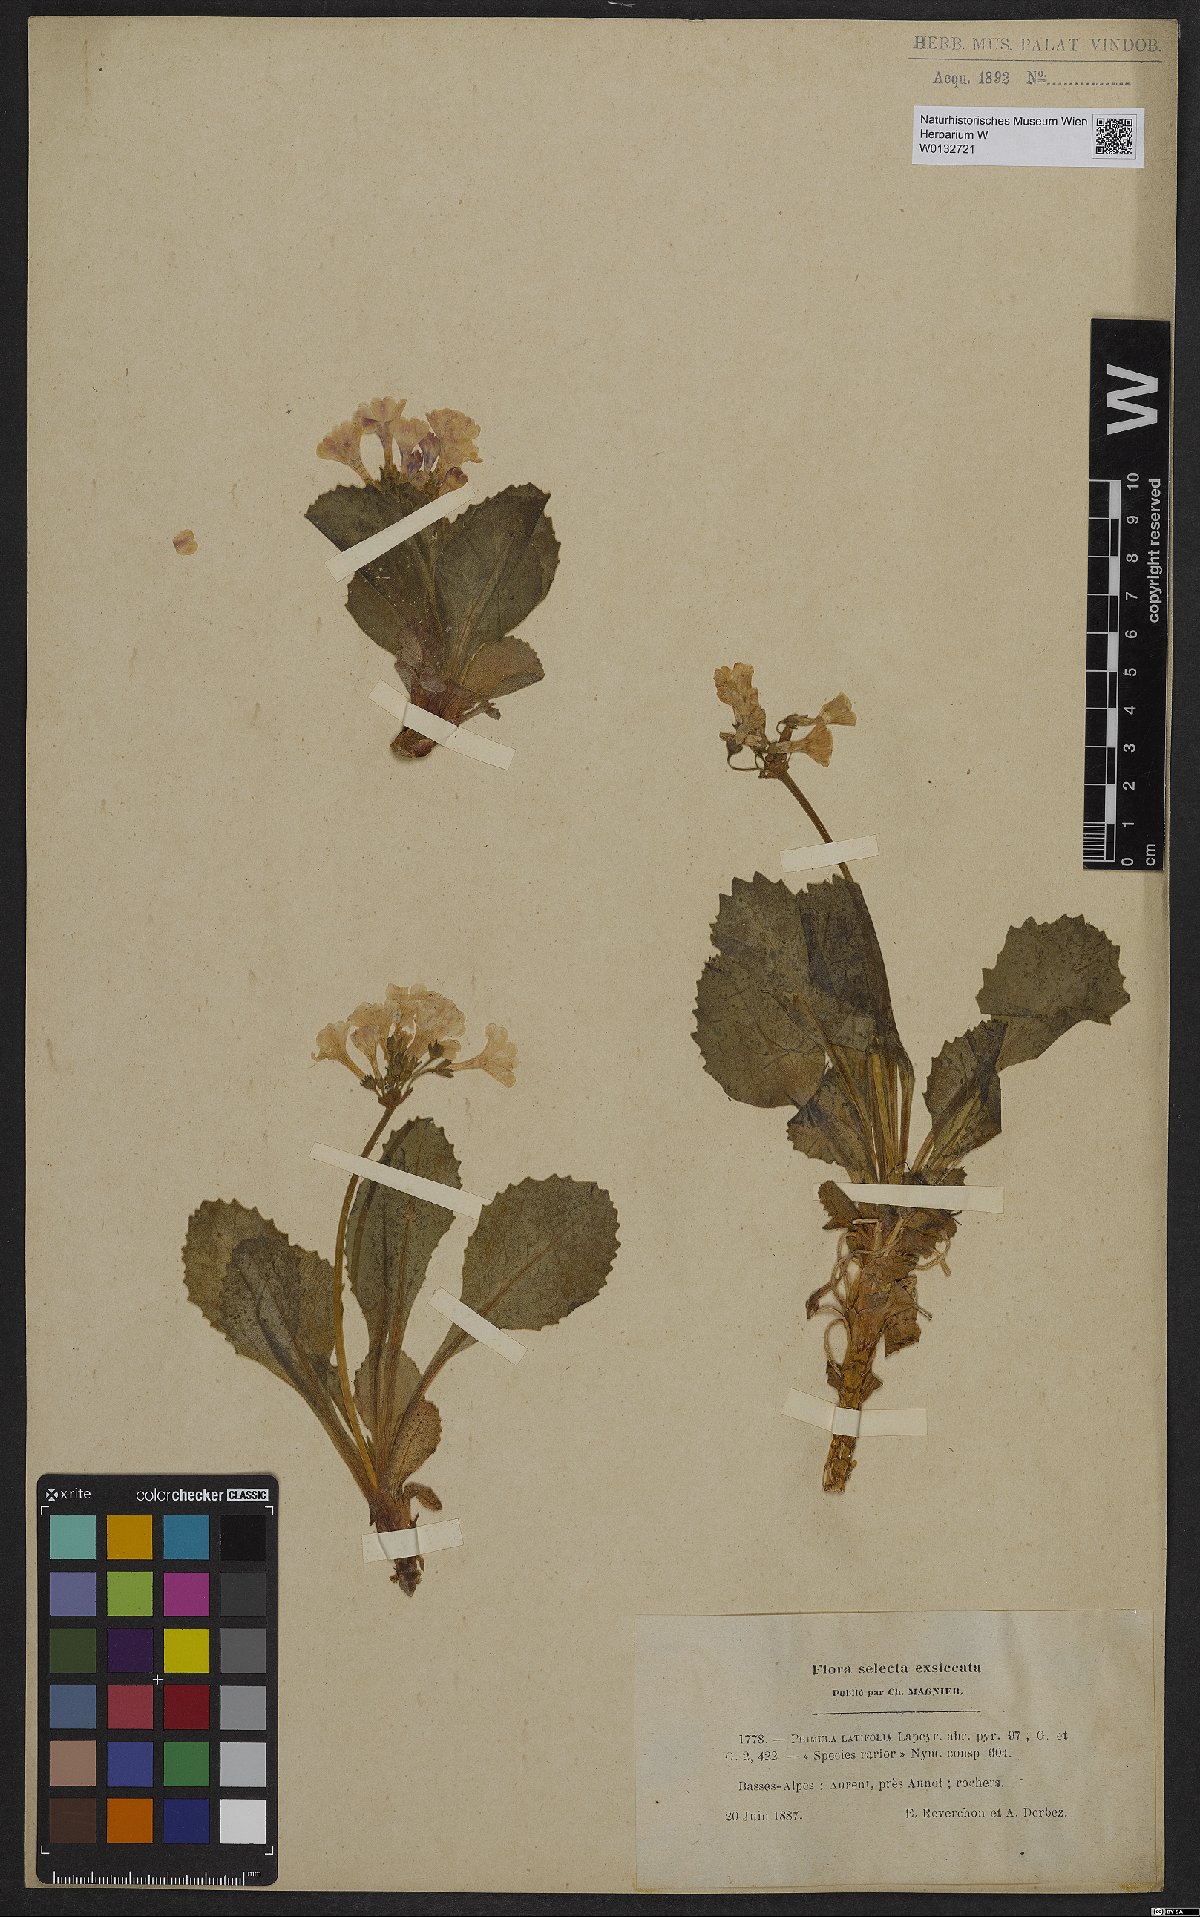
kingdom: Plantae
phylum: Tracheophyta
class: Magnoliopsida
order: Ericales
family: Primulaceae
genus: Primula
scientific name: Primula latifolia
